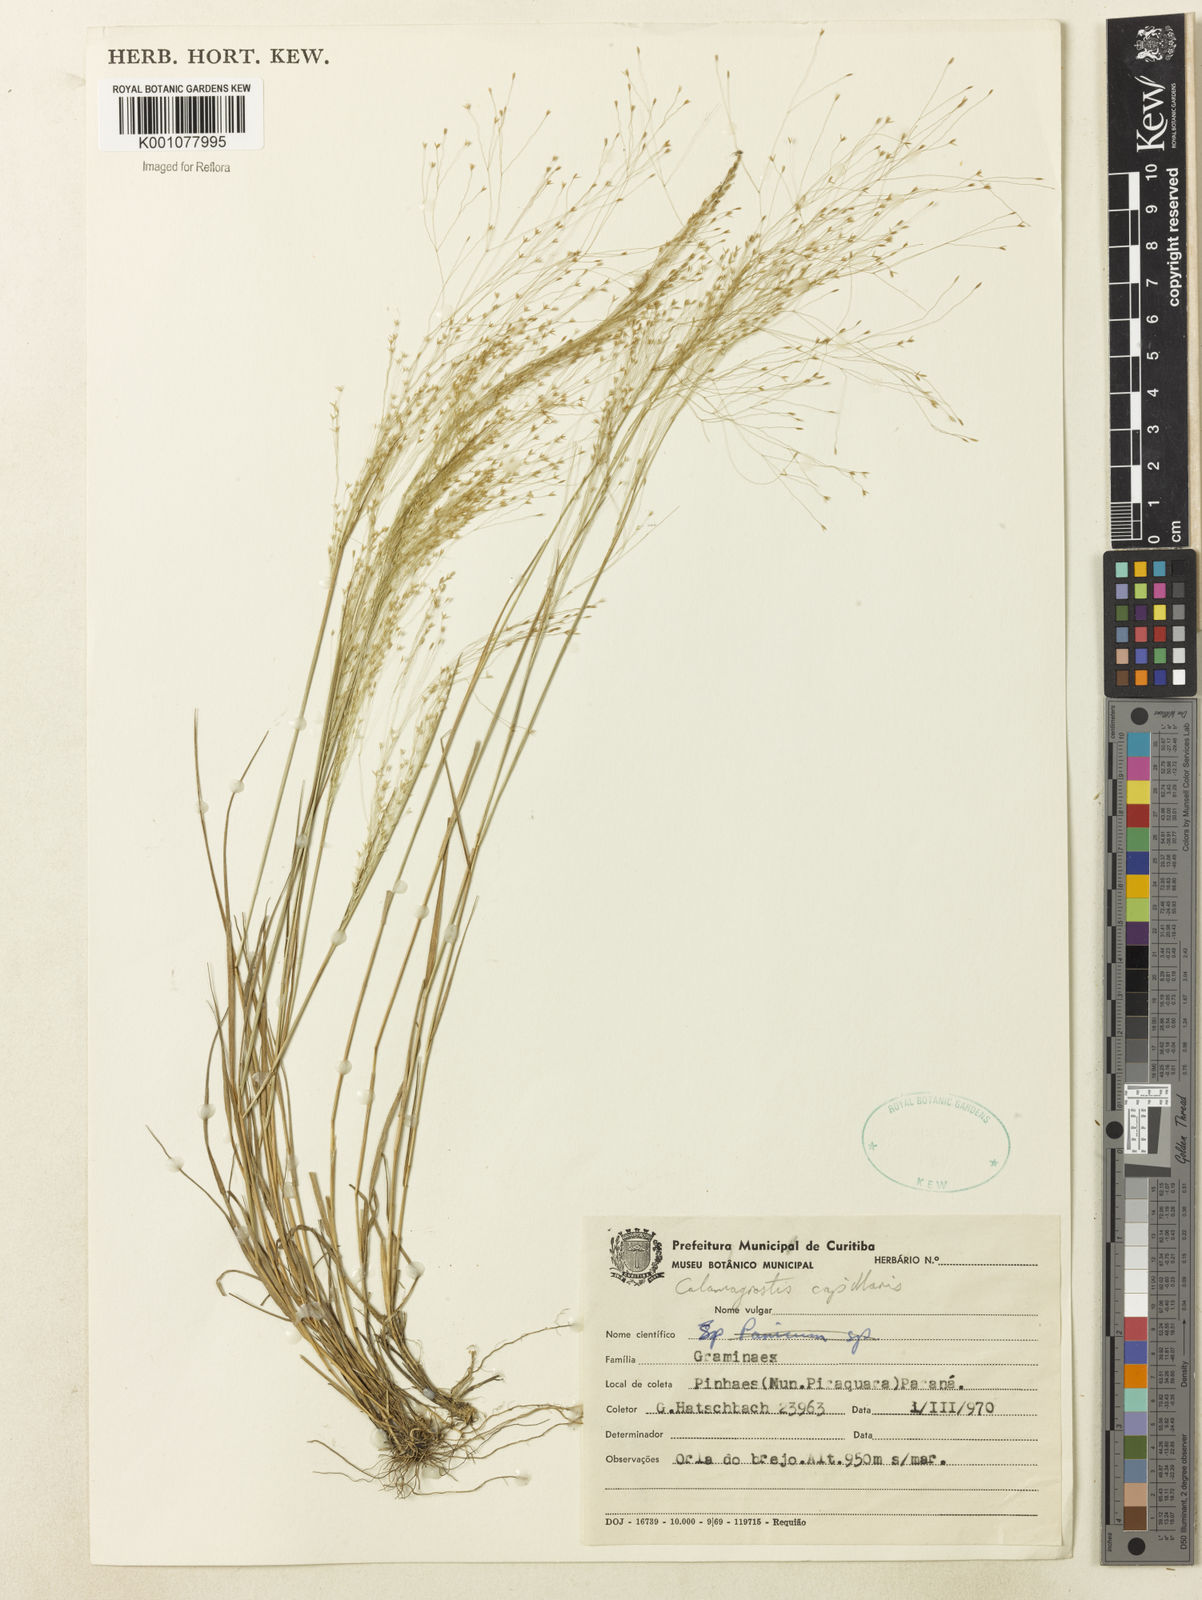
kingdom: Plantae
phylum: Tracheophyta
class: Liliopsida
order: Poales
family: Poaceae
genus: Agrostis
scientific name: Agrostis longiberbis
